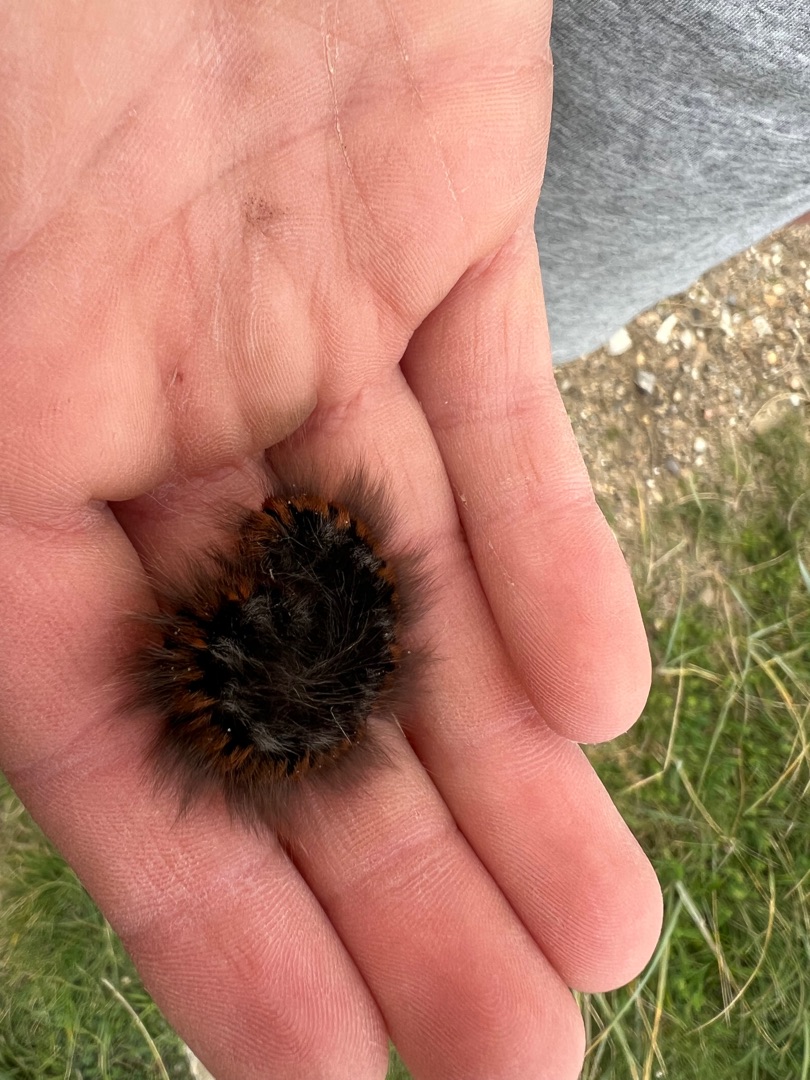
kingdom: Animalia
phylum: Arthropoda
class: Insecta
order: Lepidoptera
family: Lasiocampidae
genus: Macrothylacia
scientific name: Macrothylacia rubi
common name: Brombærspinder
